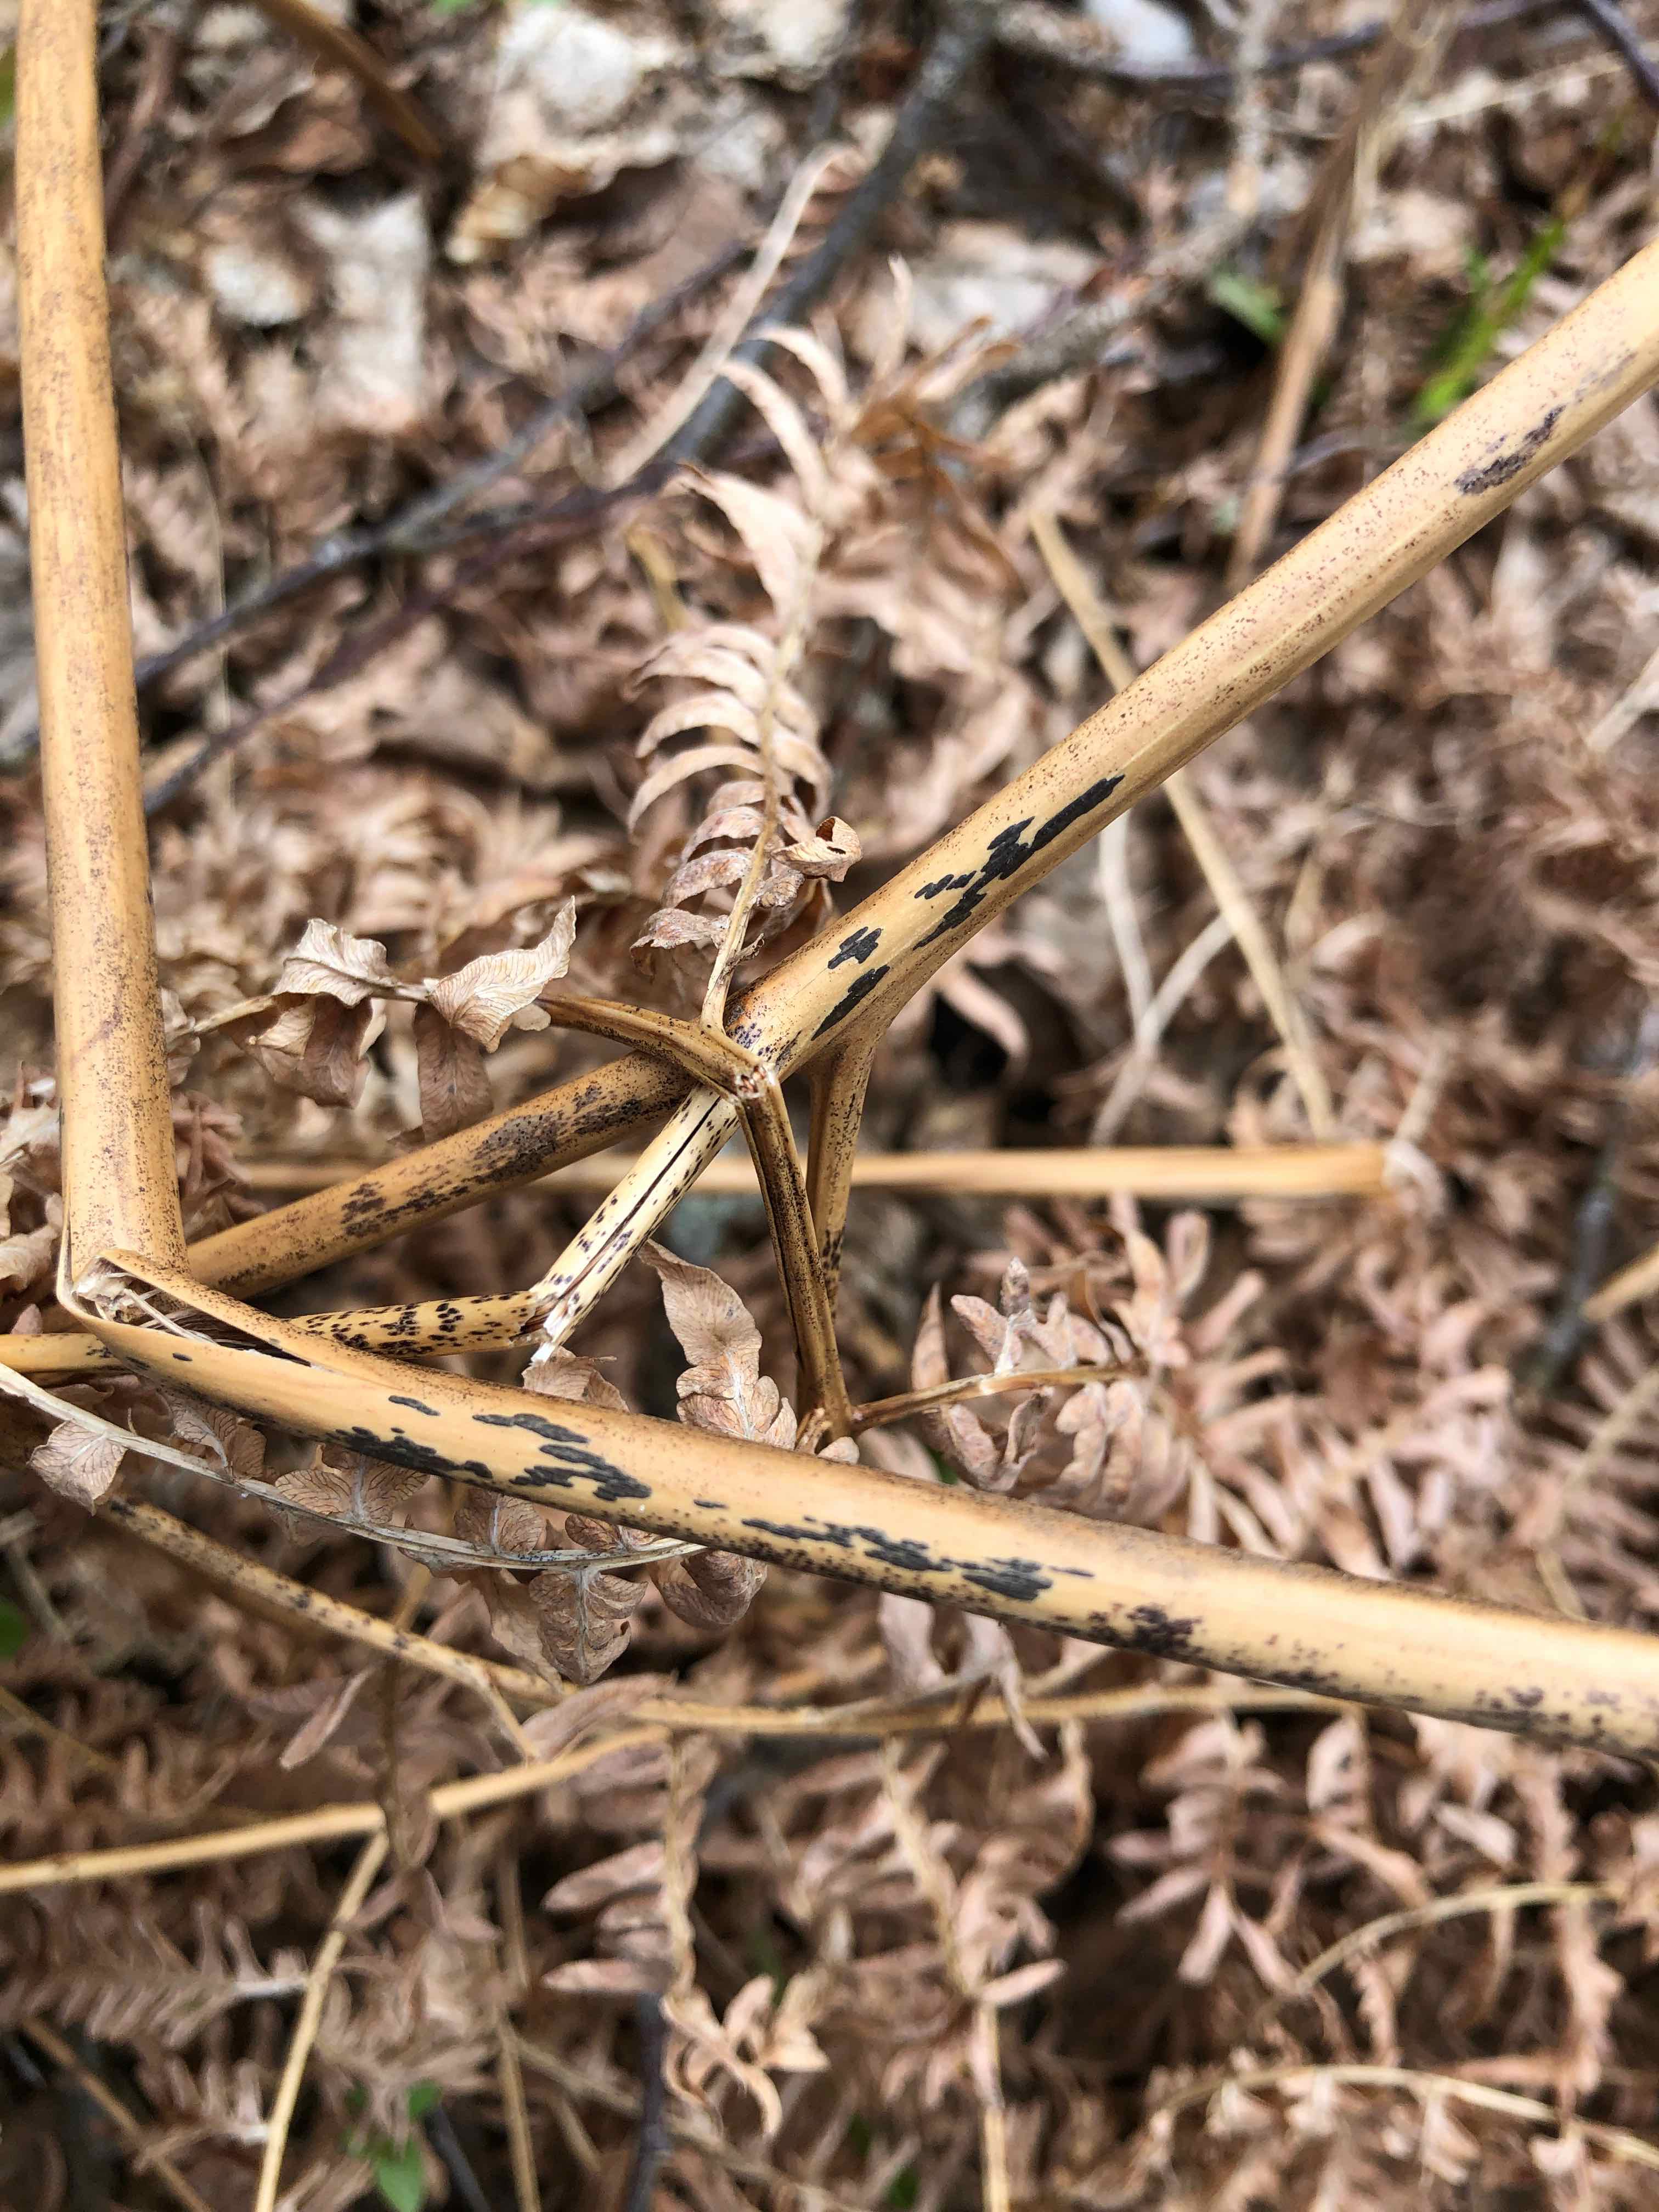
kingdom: Fungi
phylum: Ascomycota
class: Dothideomycetes
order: Pleosporales
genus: Rhopographus
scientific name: Rhopographus filicinus
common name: Bracken map
